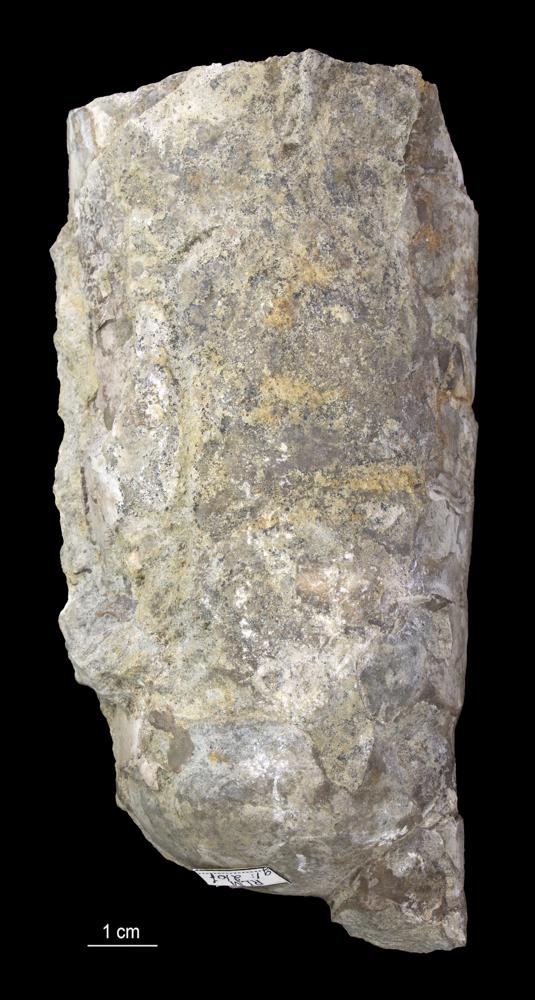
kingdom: Animalia
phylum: Mollusca
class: Cephalopoda
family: Endoceratidae
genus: Endoceras
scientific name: Endoceras
